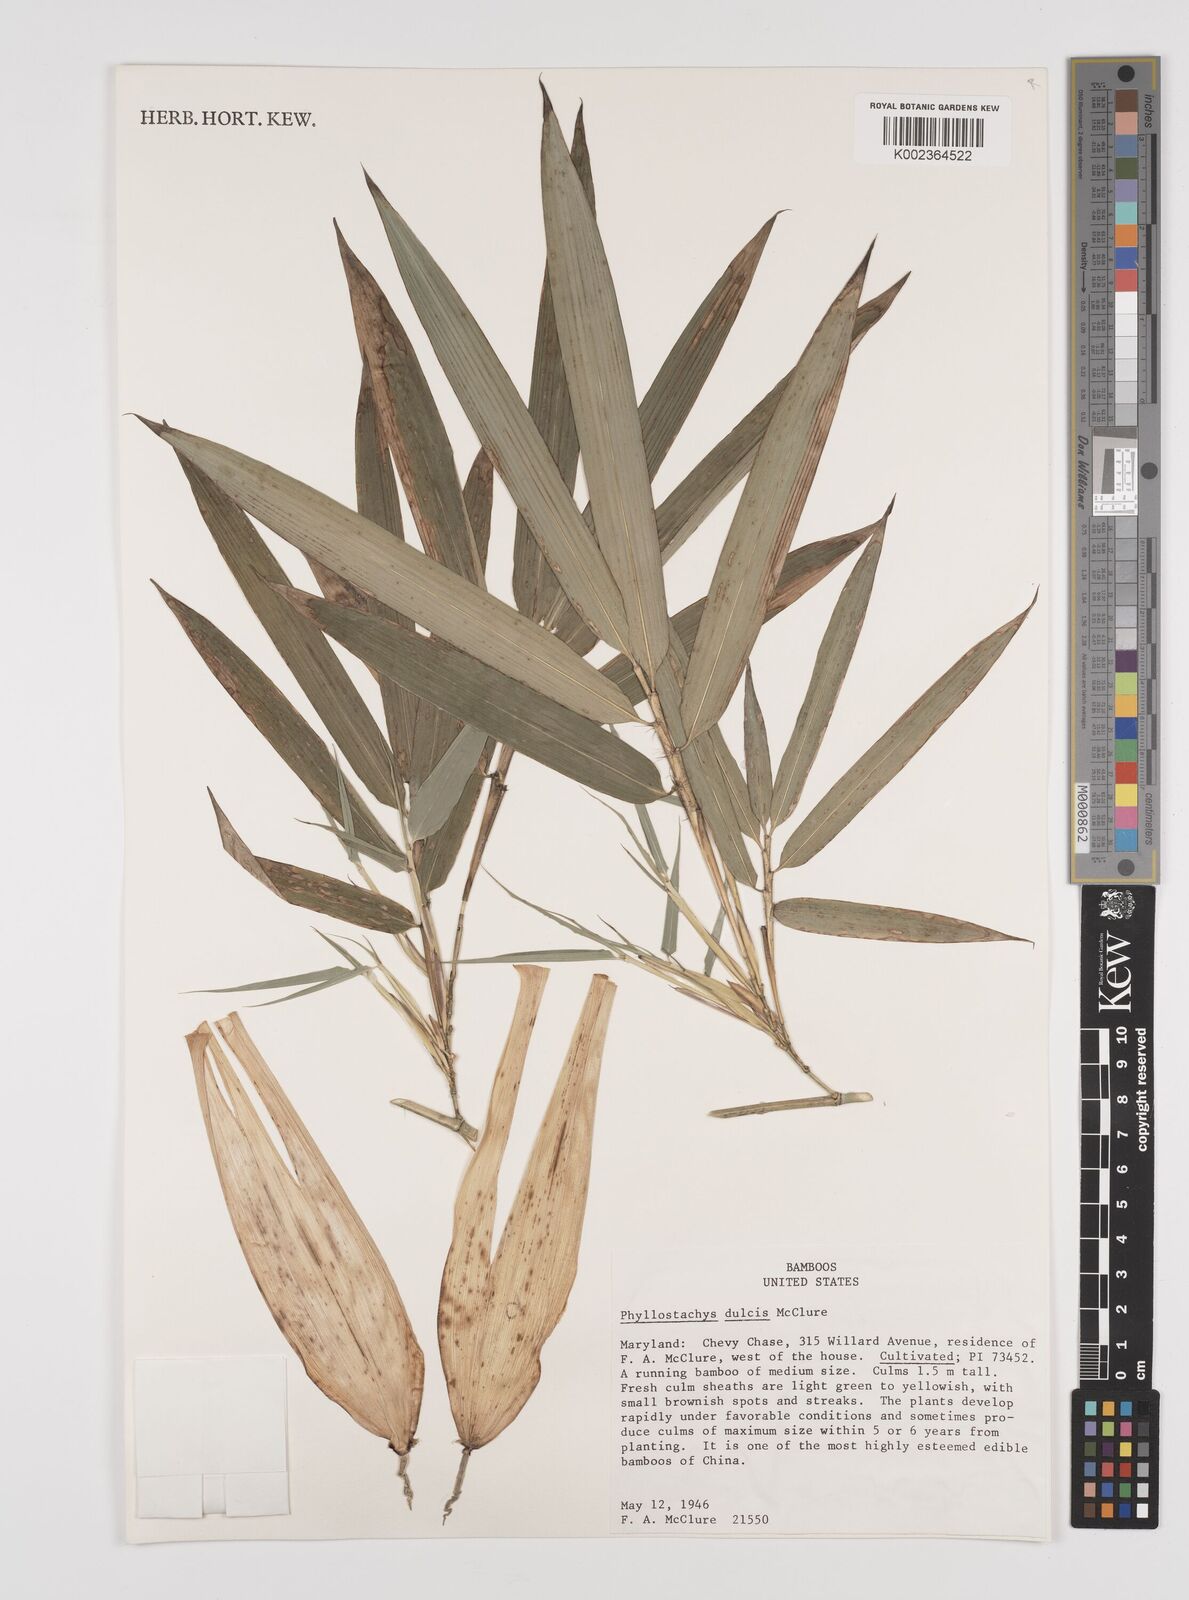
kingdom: Plantae
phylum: Tracheophyta
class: Liliopsida
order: Poales
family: Poaceae
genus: Phyllostachys
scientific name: Phyllostachys dulcis
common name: Sweetshoot bamboo
